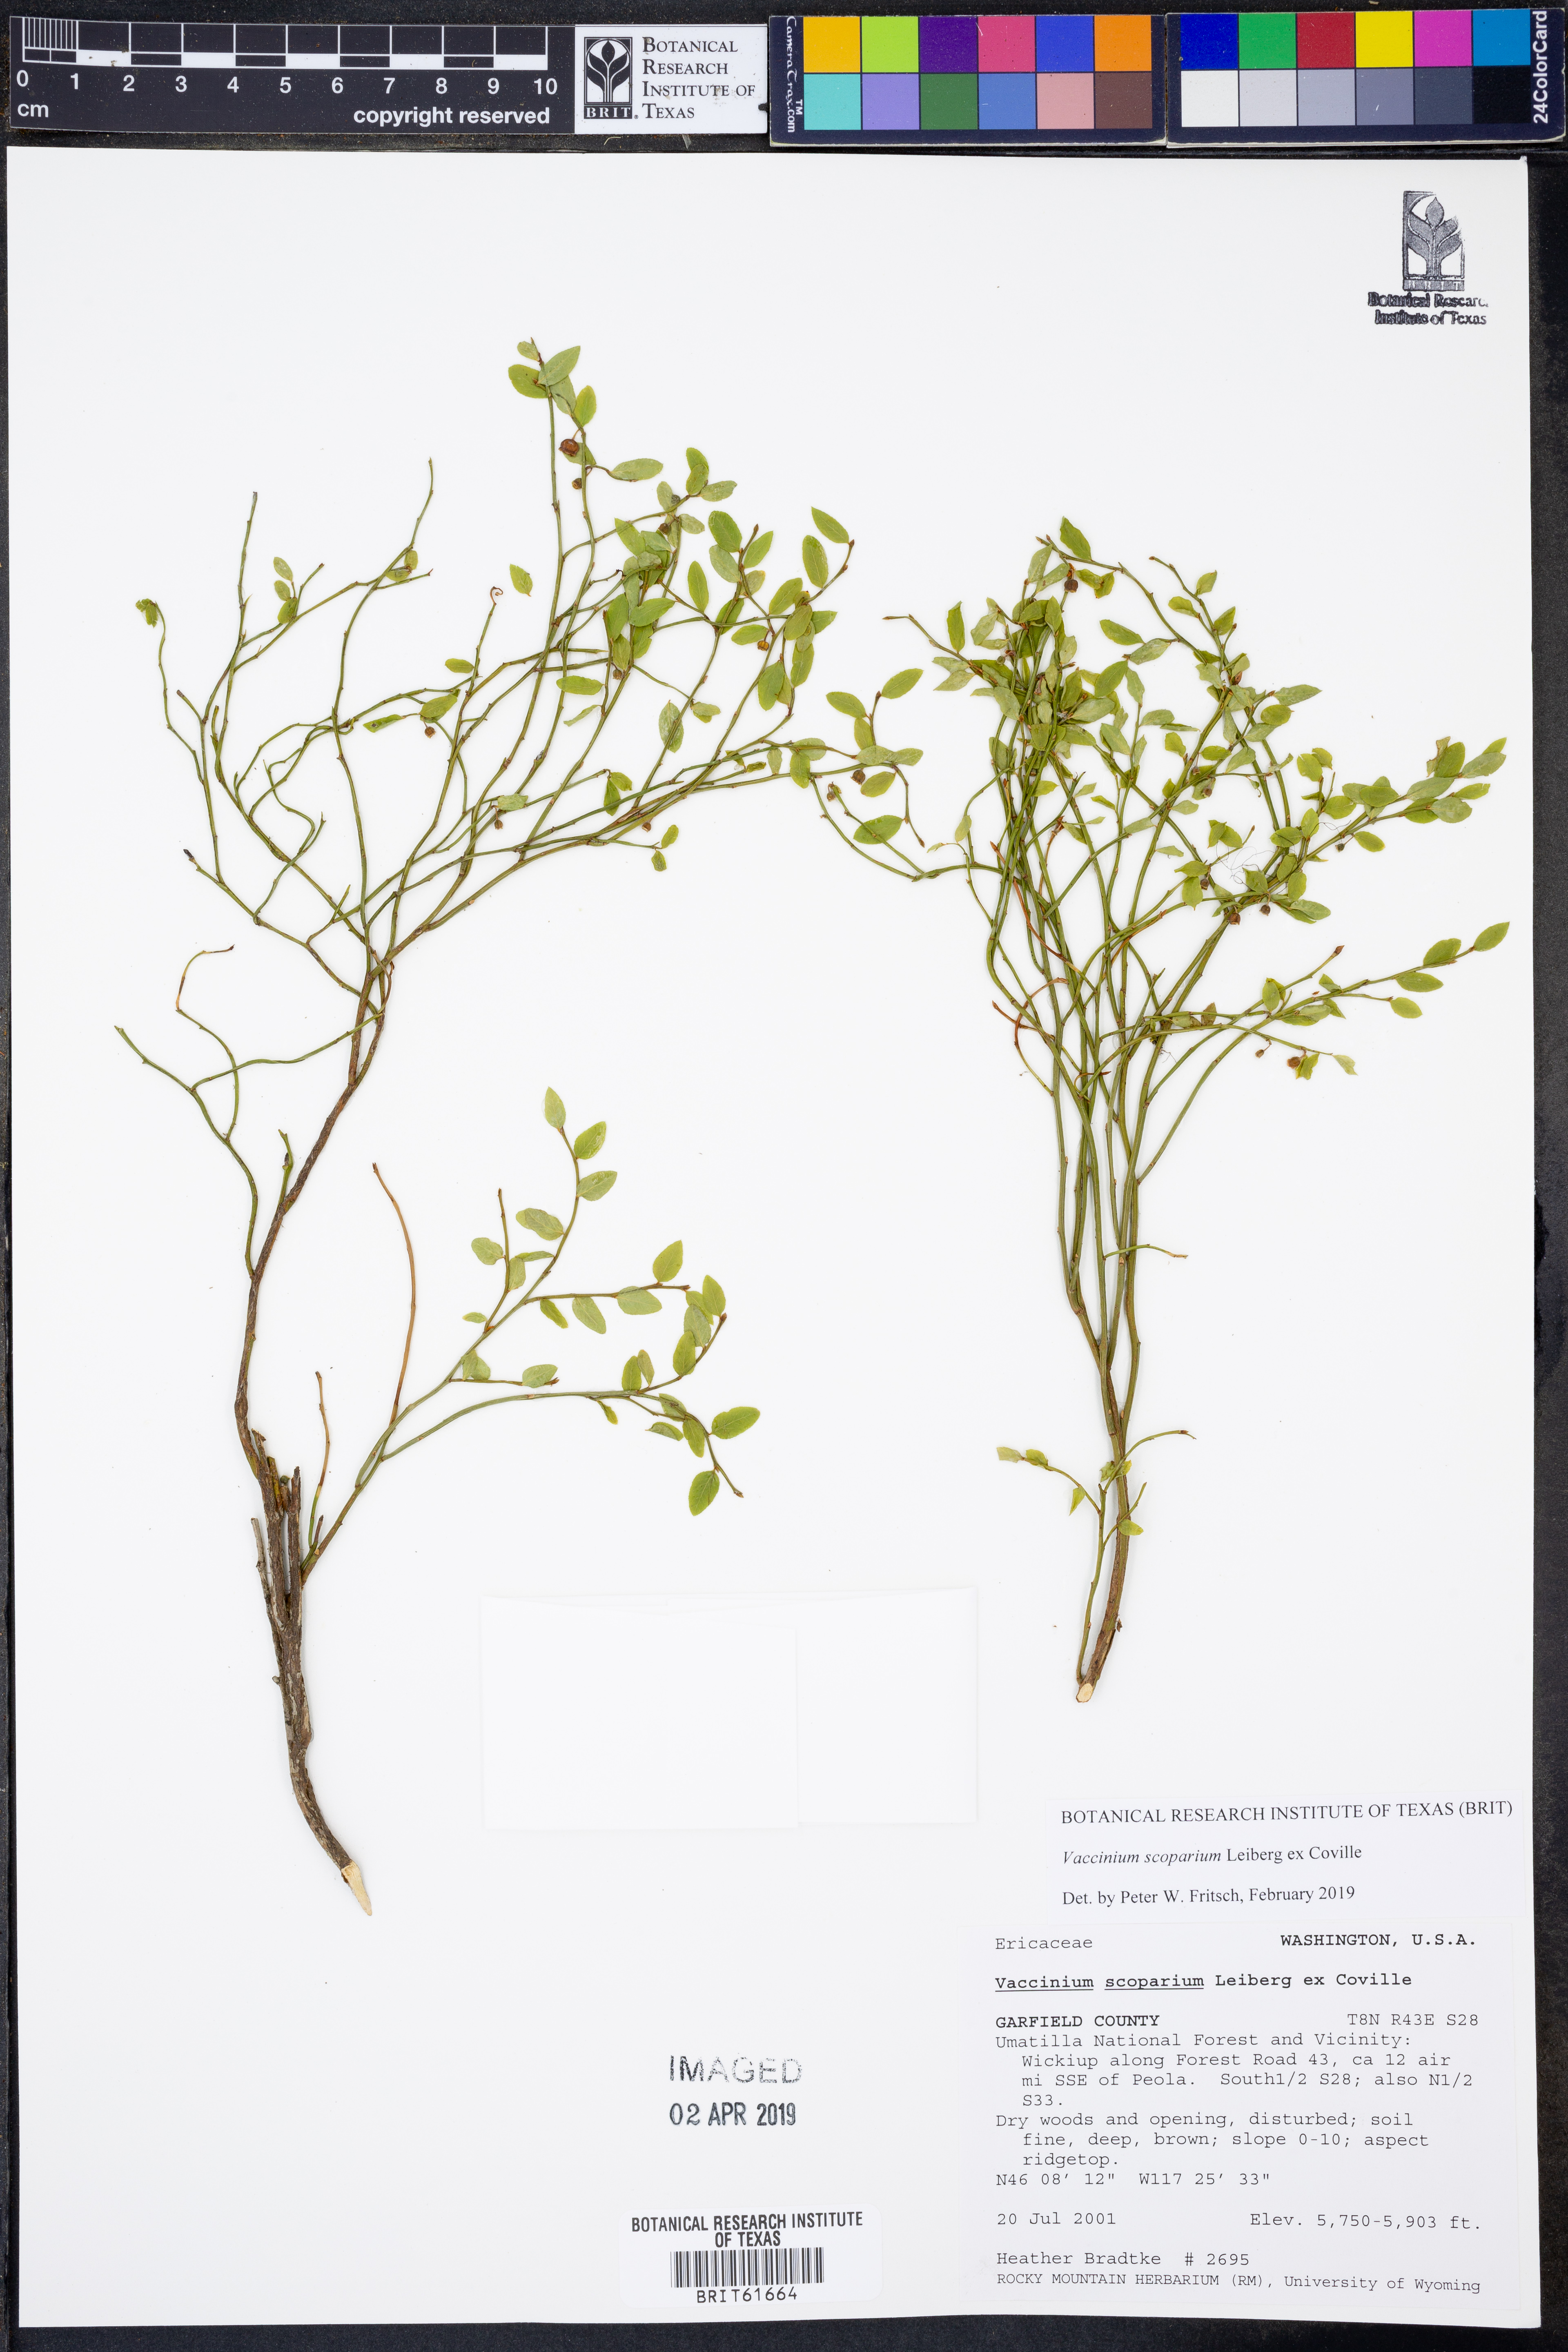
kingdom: Plantae
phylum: Tracheophyta
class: Magnoliopsida
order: Ericales
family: Ericaceae
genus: Vaccinium
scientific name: Vaccinium scoparium
